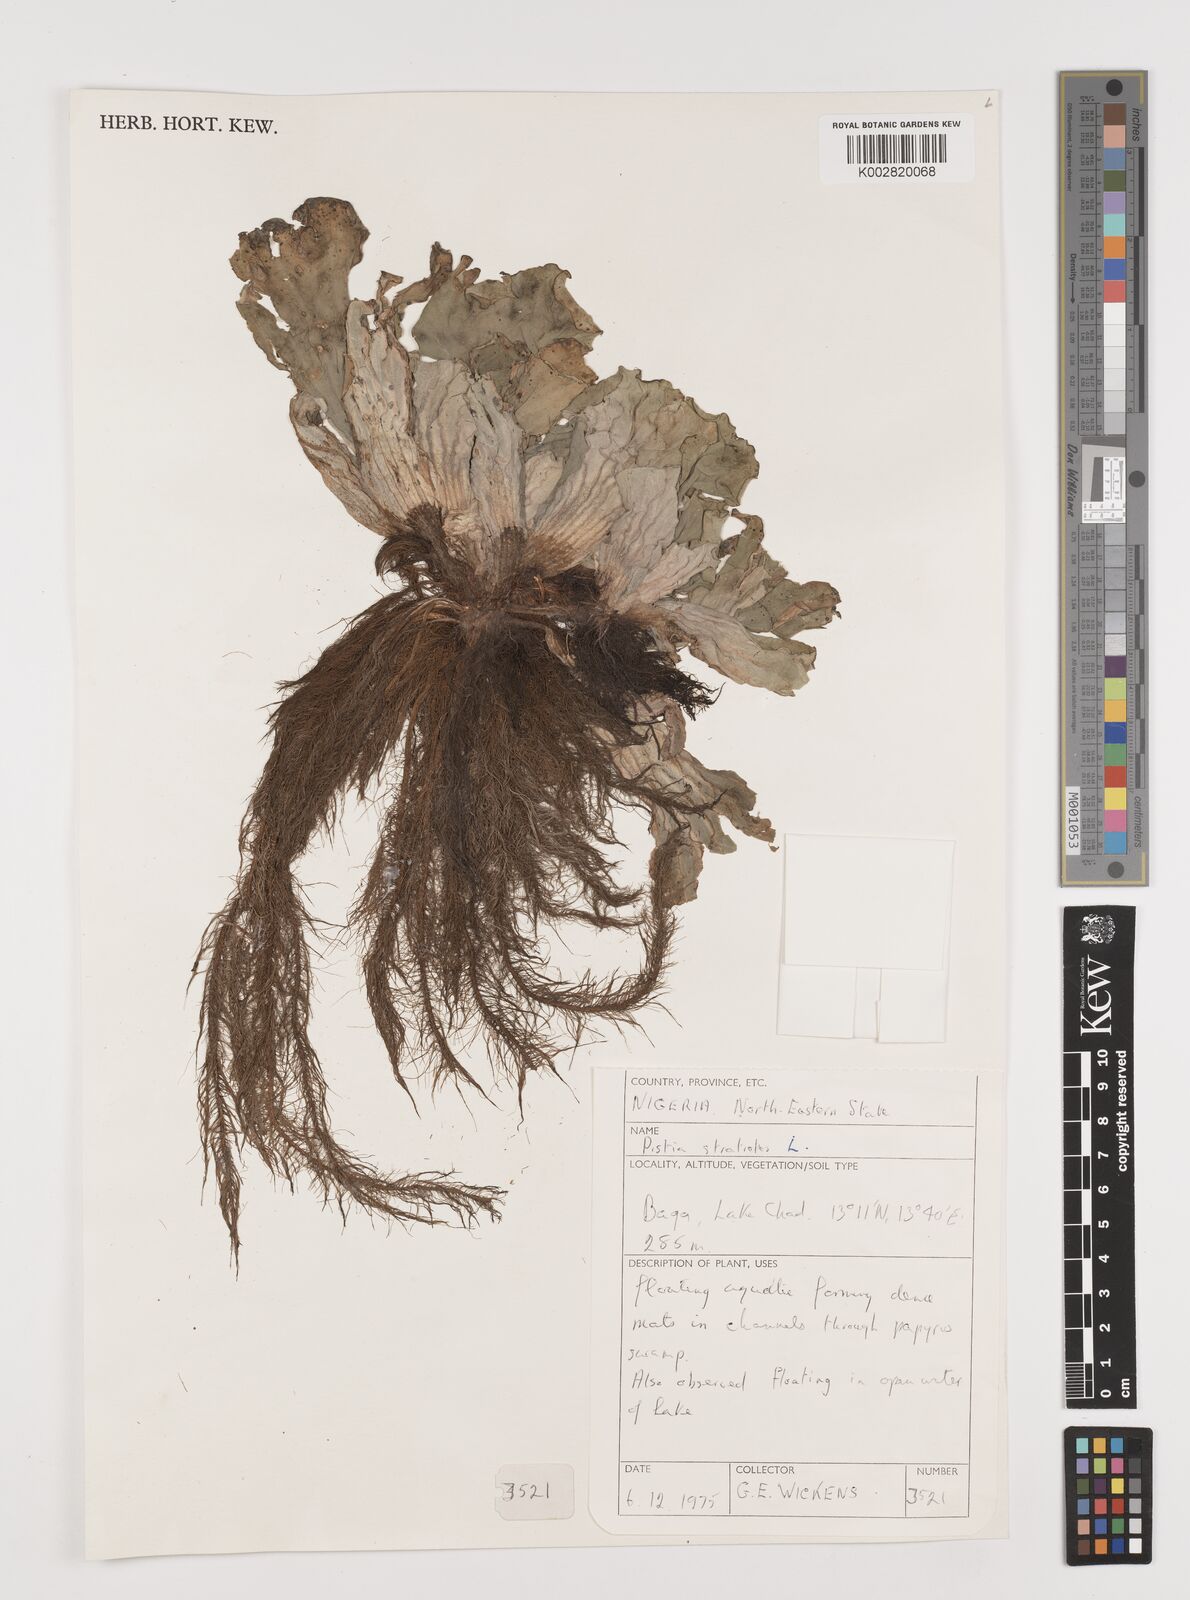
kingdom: Plantae
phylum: Tracheophyta
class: Liliopsida
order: Alismatales
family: Araceae
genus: Pistia
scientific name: Pistia stratiotes
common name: Water lettuce
